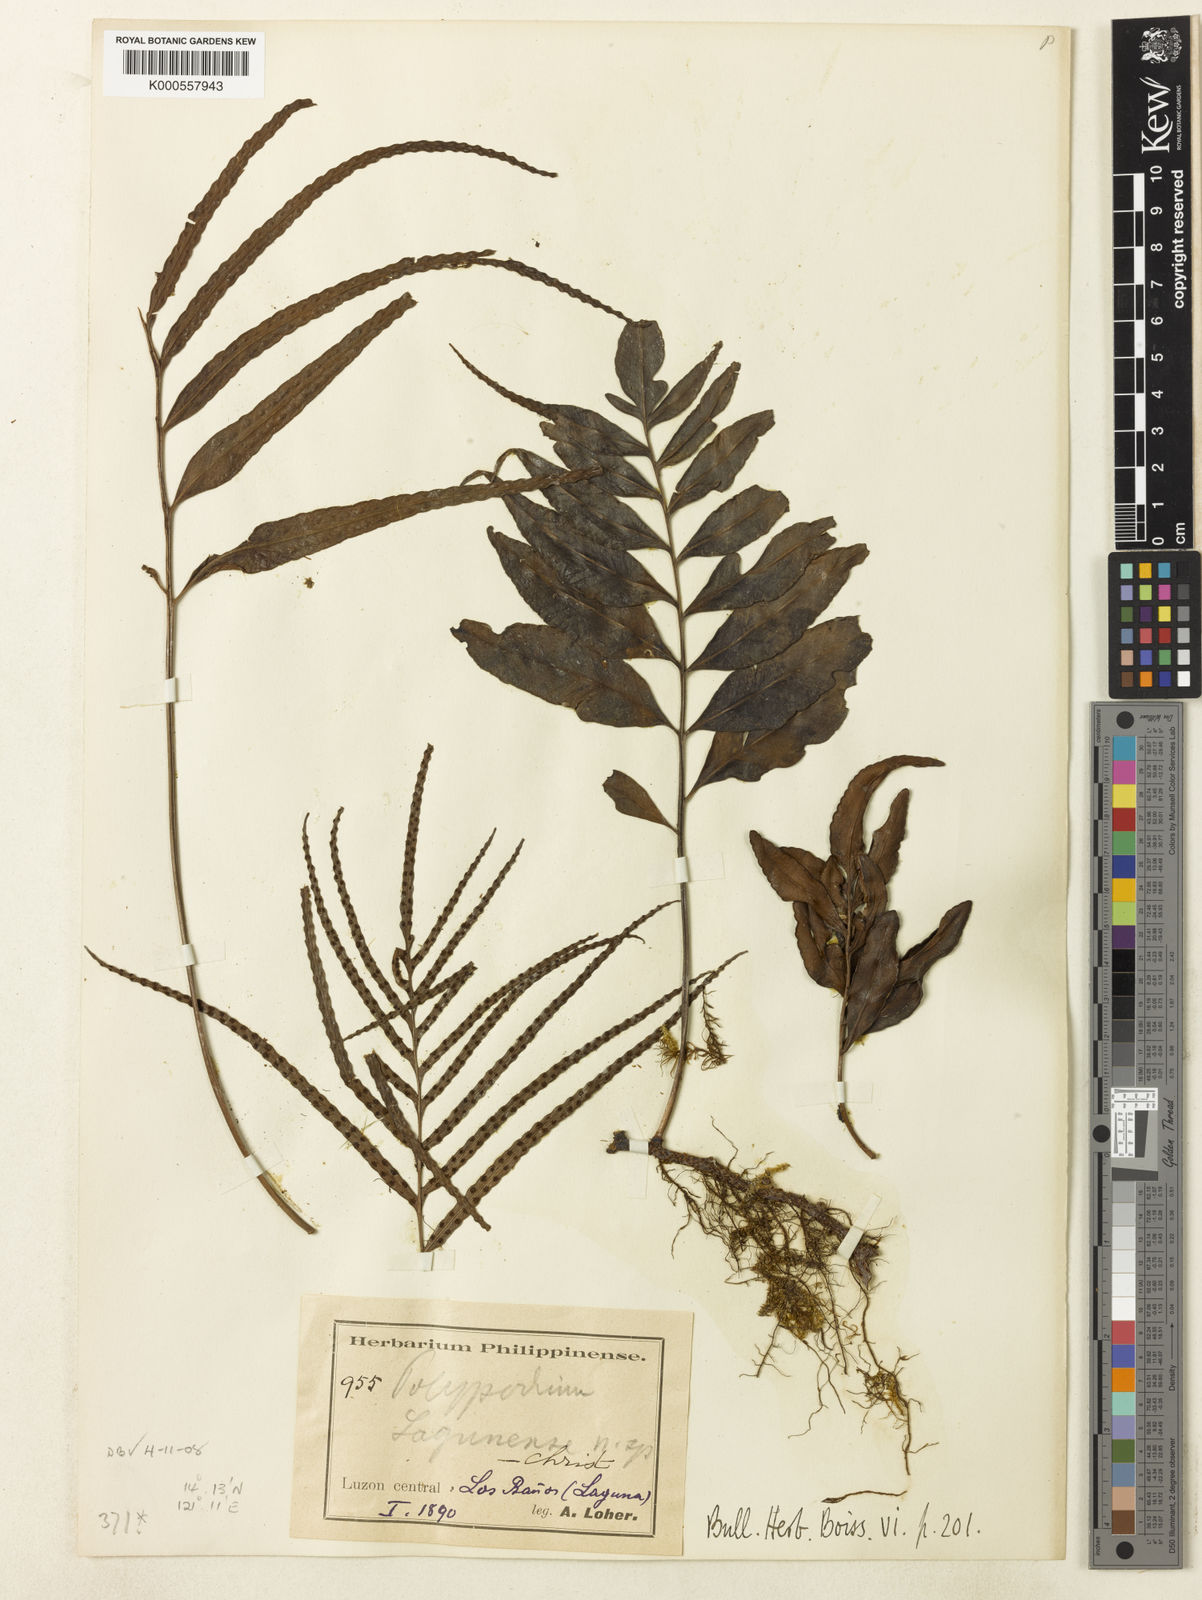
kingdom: Plantae
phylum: Tracheophyta
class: Polypodiopsida
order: Polypodiales
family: Polypodiaceae
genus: Selliguea
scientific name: Selliguea lagunensis
